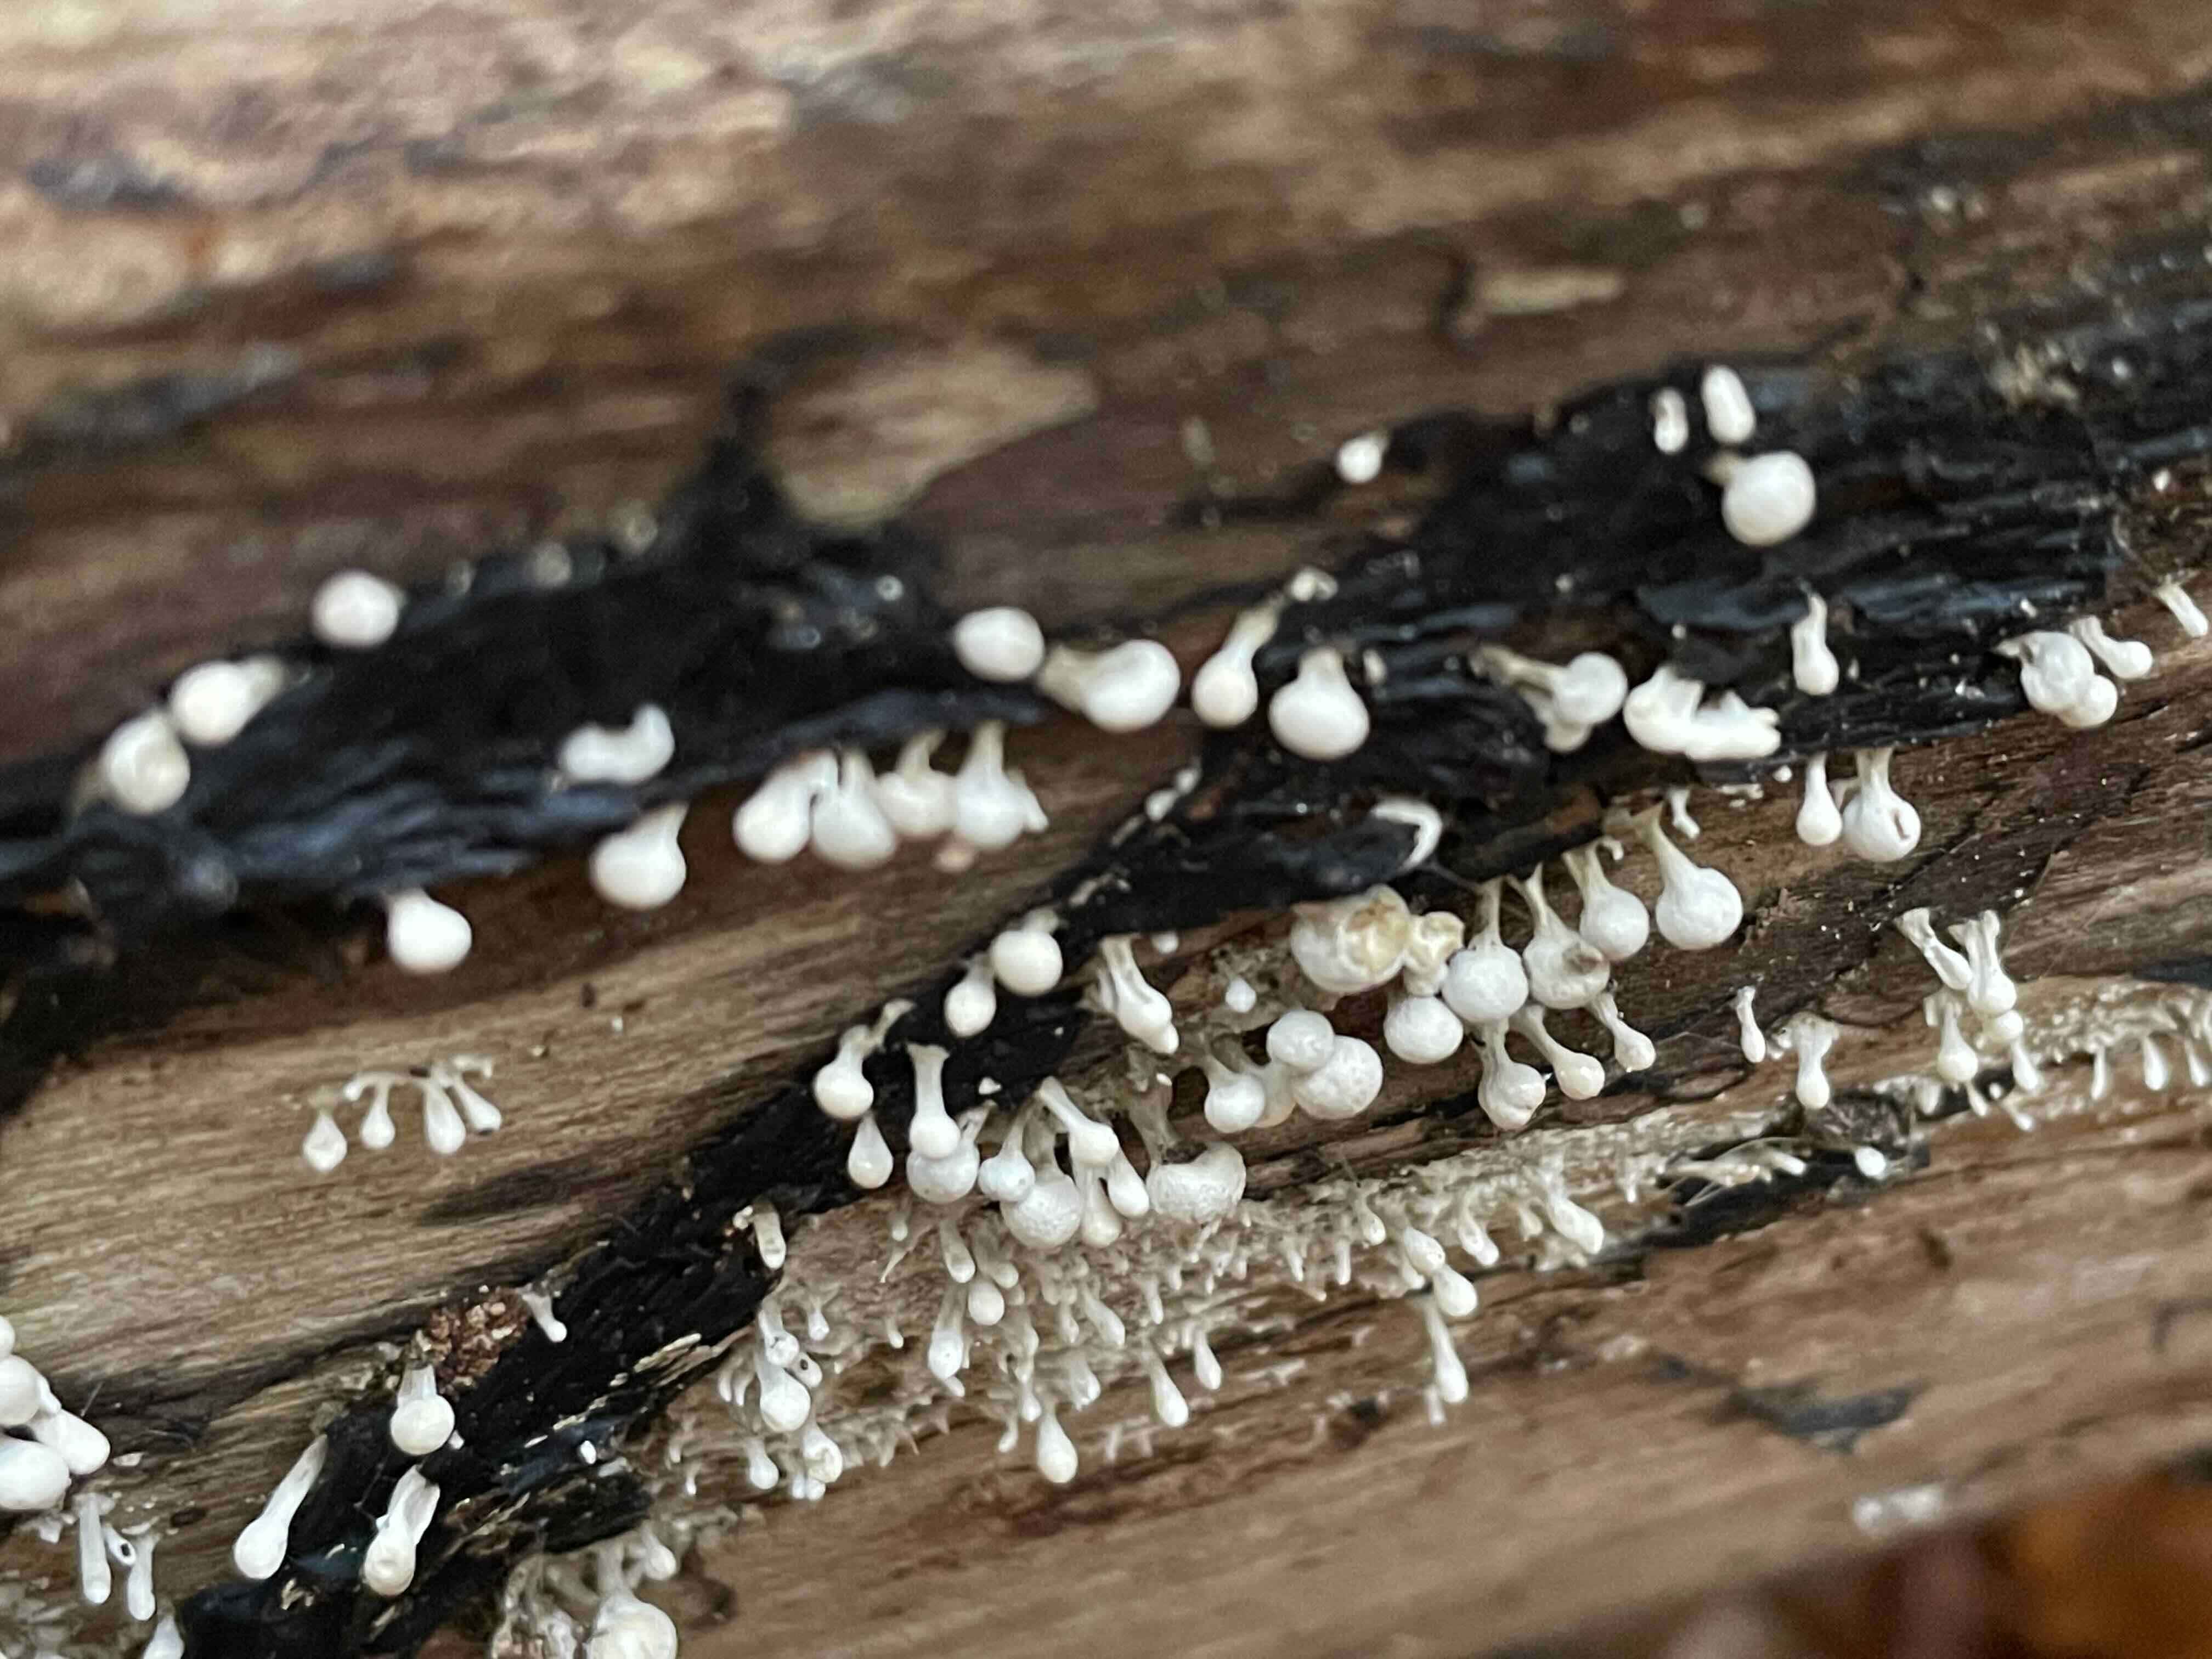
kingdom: Fungi
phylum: Basidiomycota
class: Atractiellomycetes
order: Atractiellales
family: Phleogenaceae
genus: Phleogena
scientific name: Phleogena faginea
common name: pudderkølle
